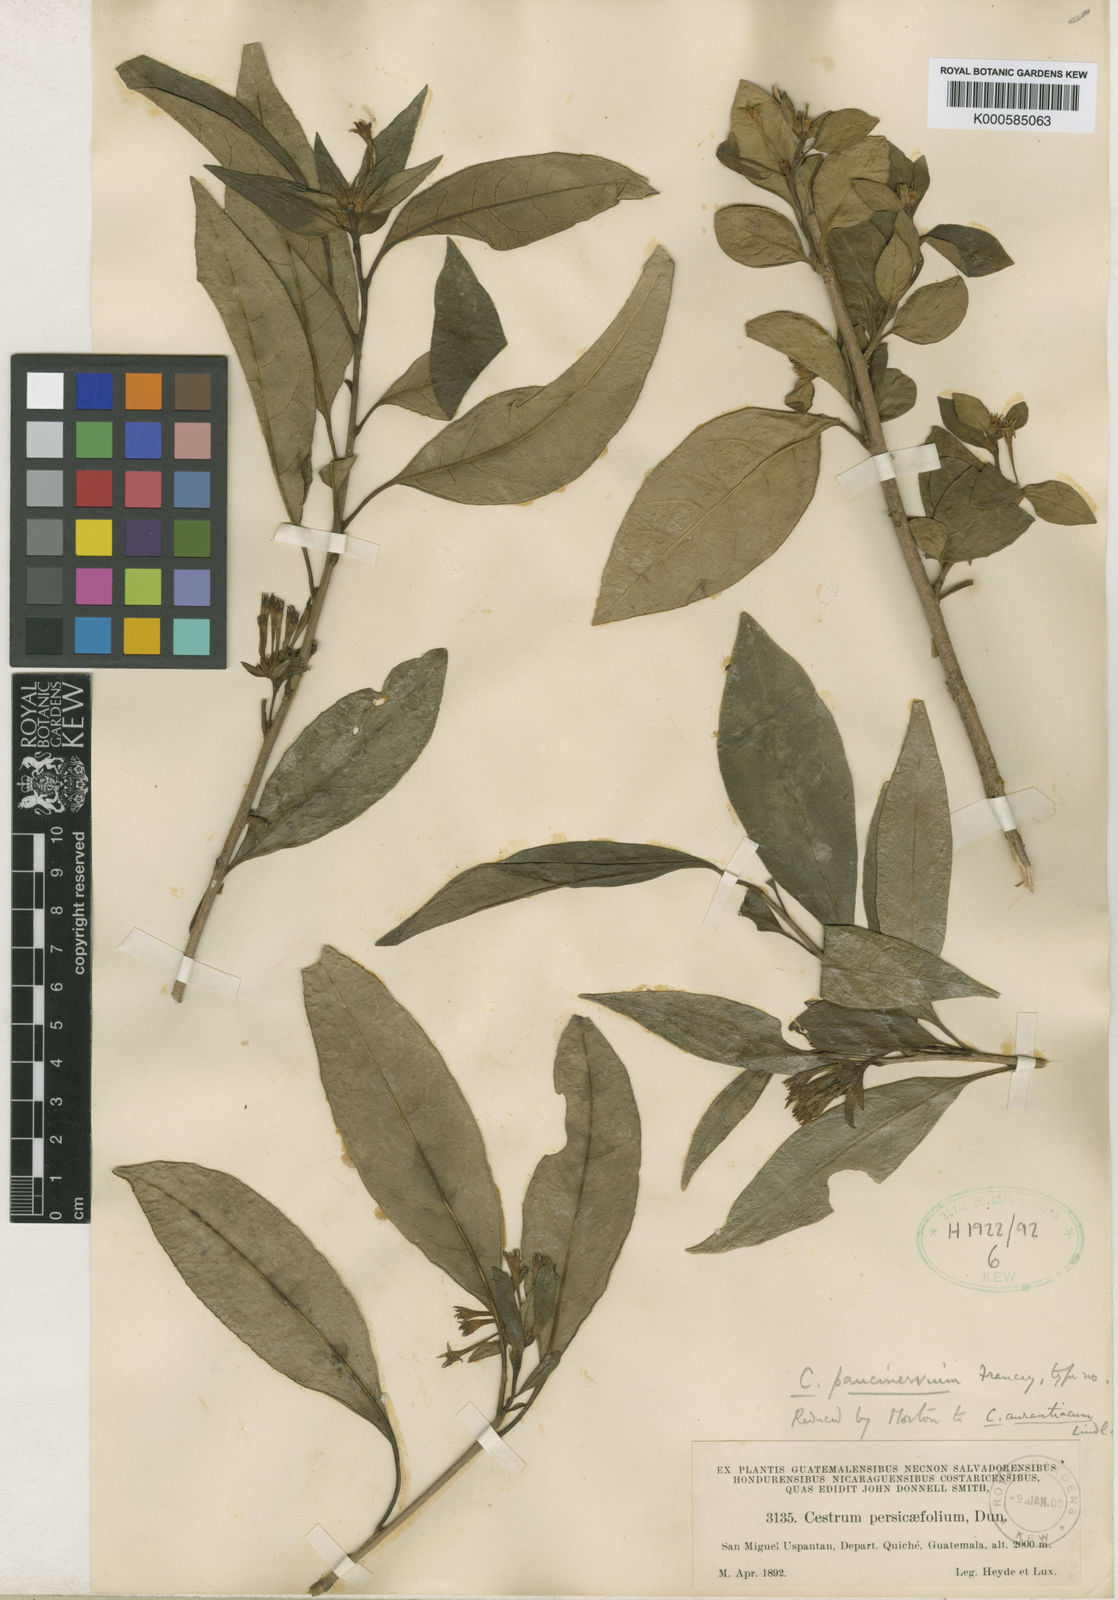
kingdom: Plantae
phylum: Tracheophyta
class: Magnoliopsida
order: Solanales
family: Solanaceae
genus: Cestrum
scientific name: Cestrum aurantiacum
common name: Orange cestrum
